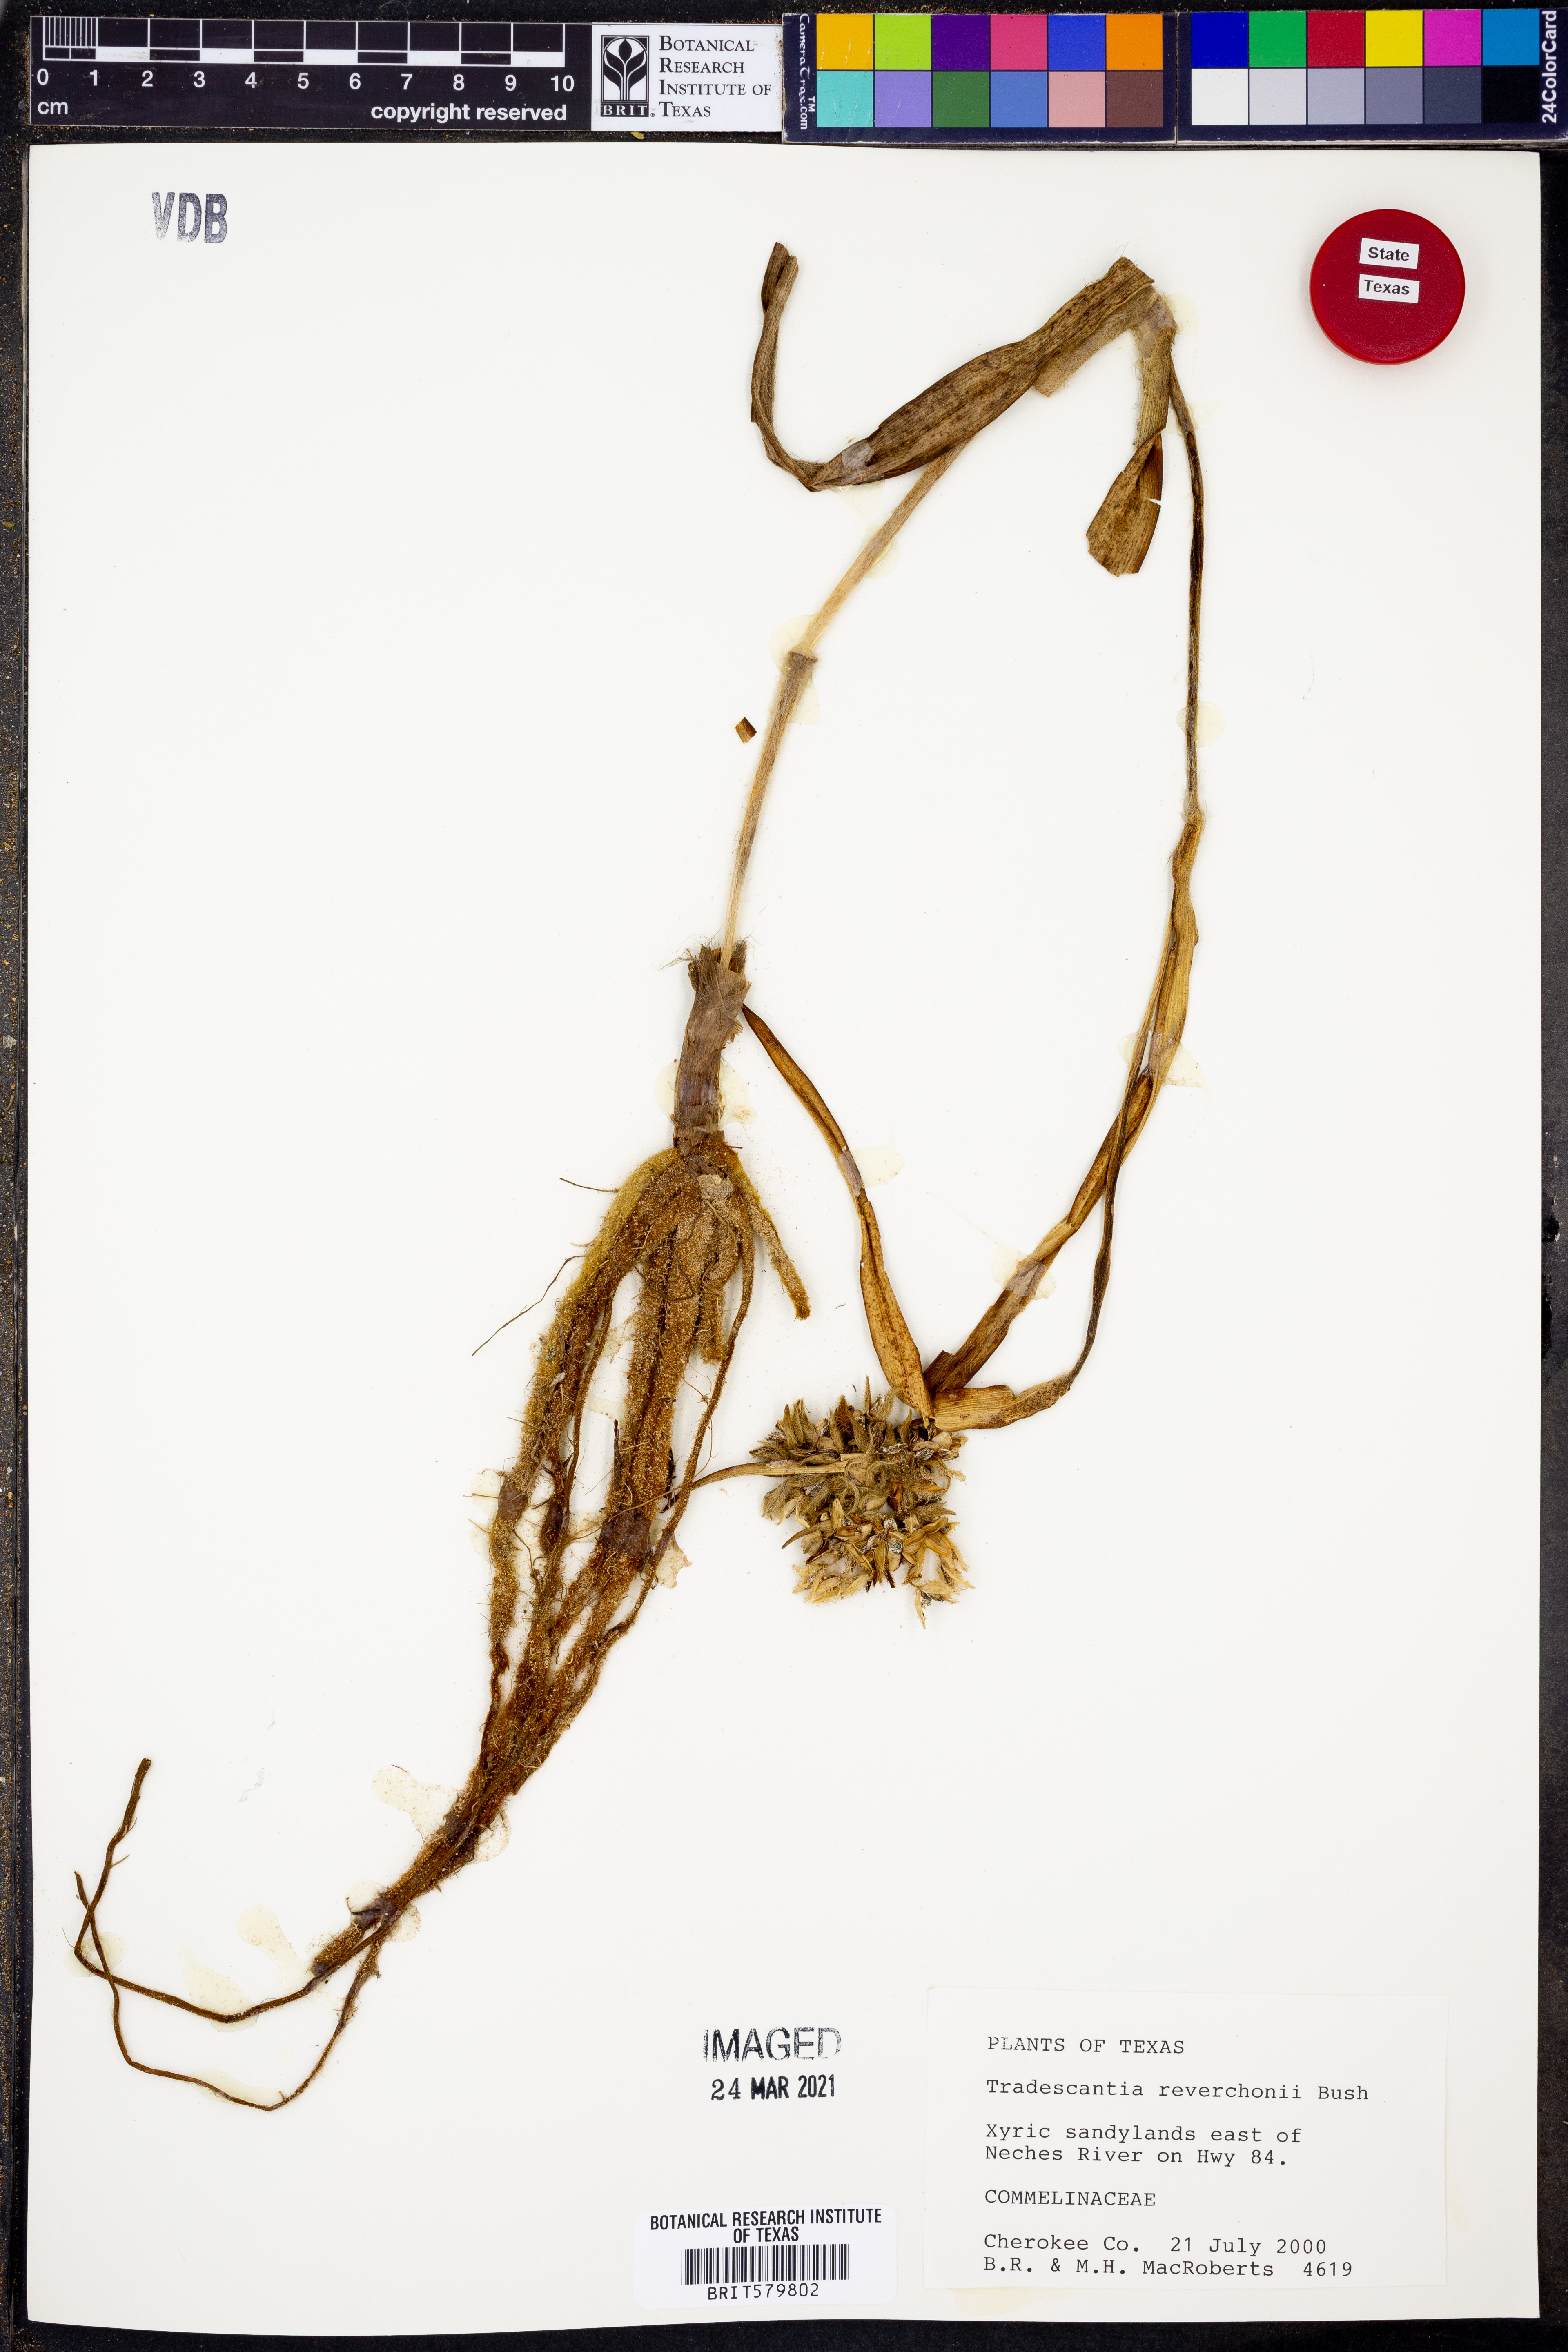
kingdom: Plantae
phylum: Tracheophyta
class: Liliopsida
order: Commelinales
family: Commelinaceae
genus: Tradescantia
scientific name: Tradescantia reverchonii
